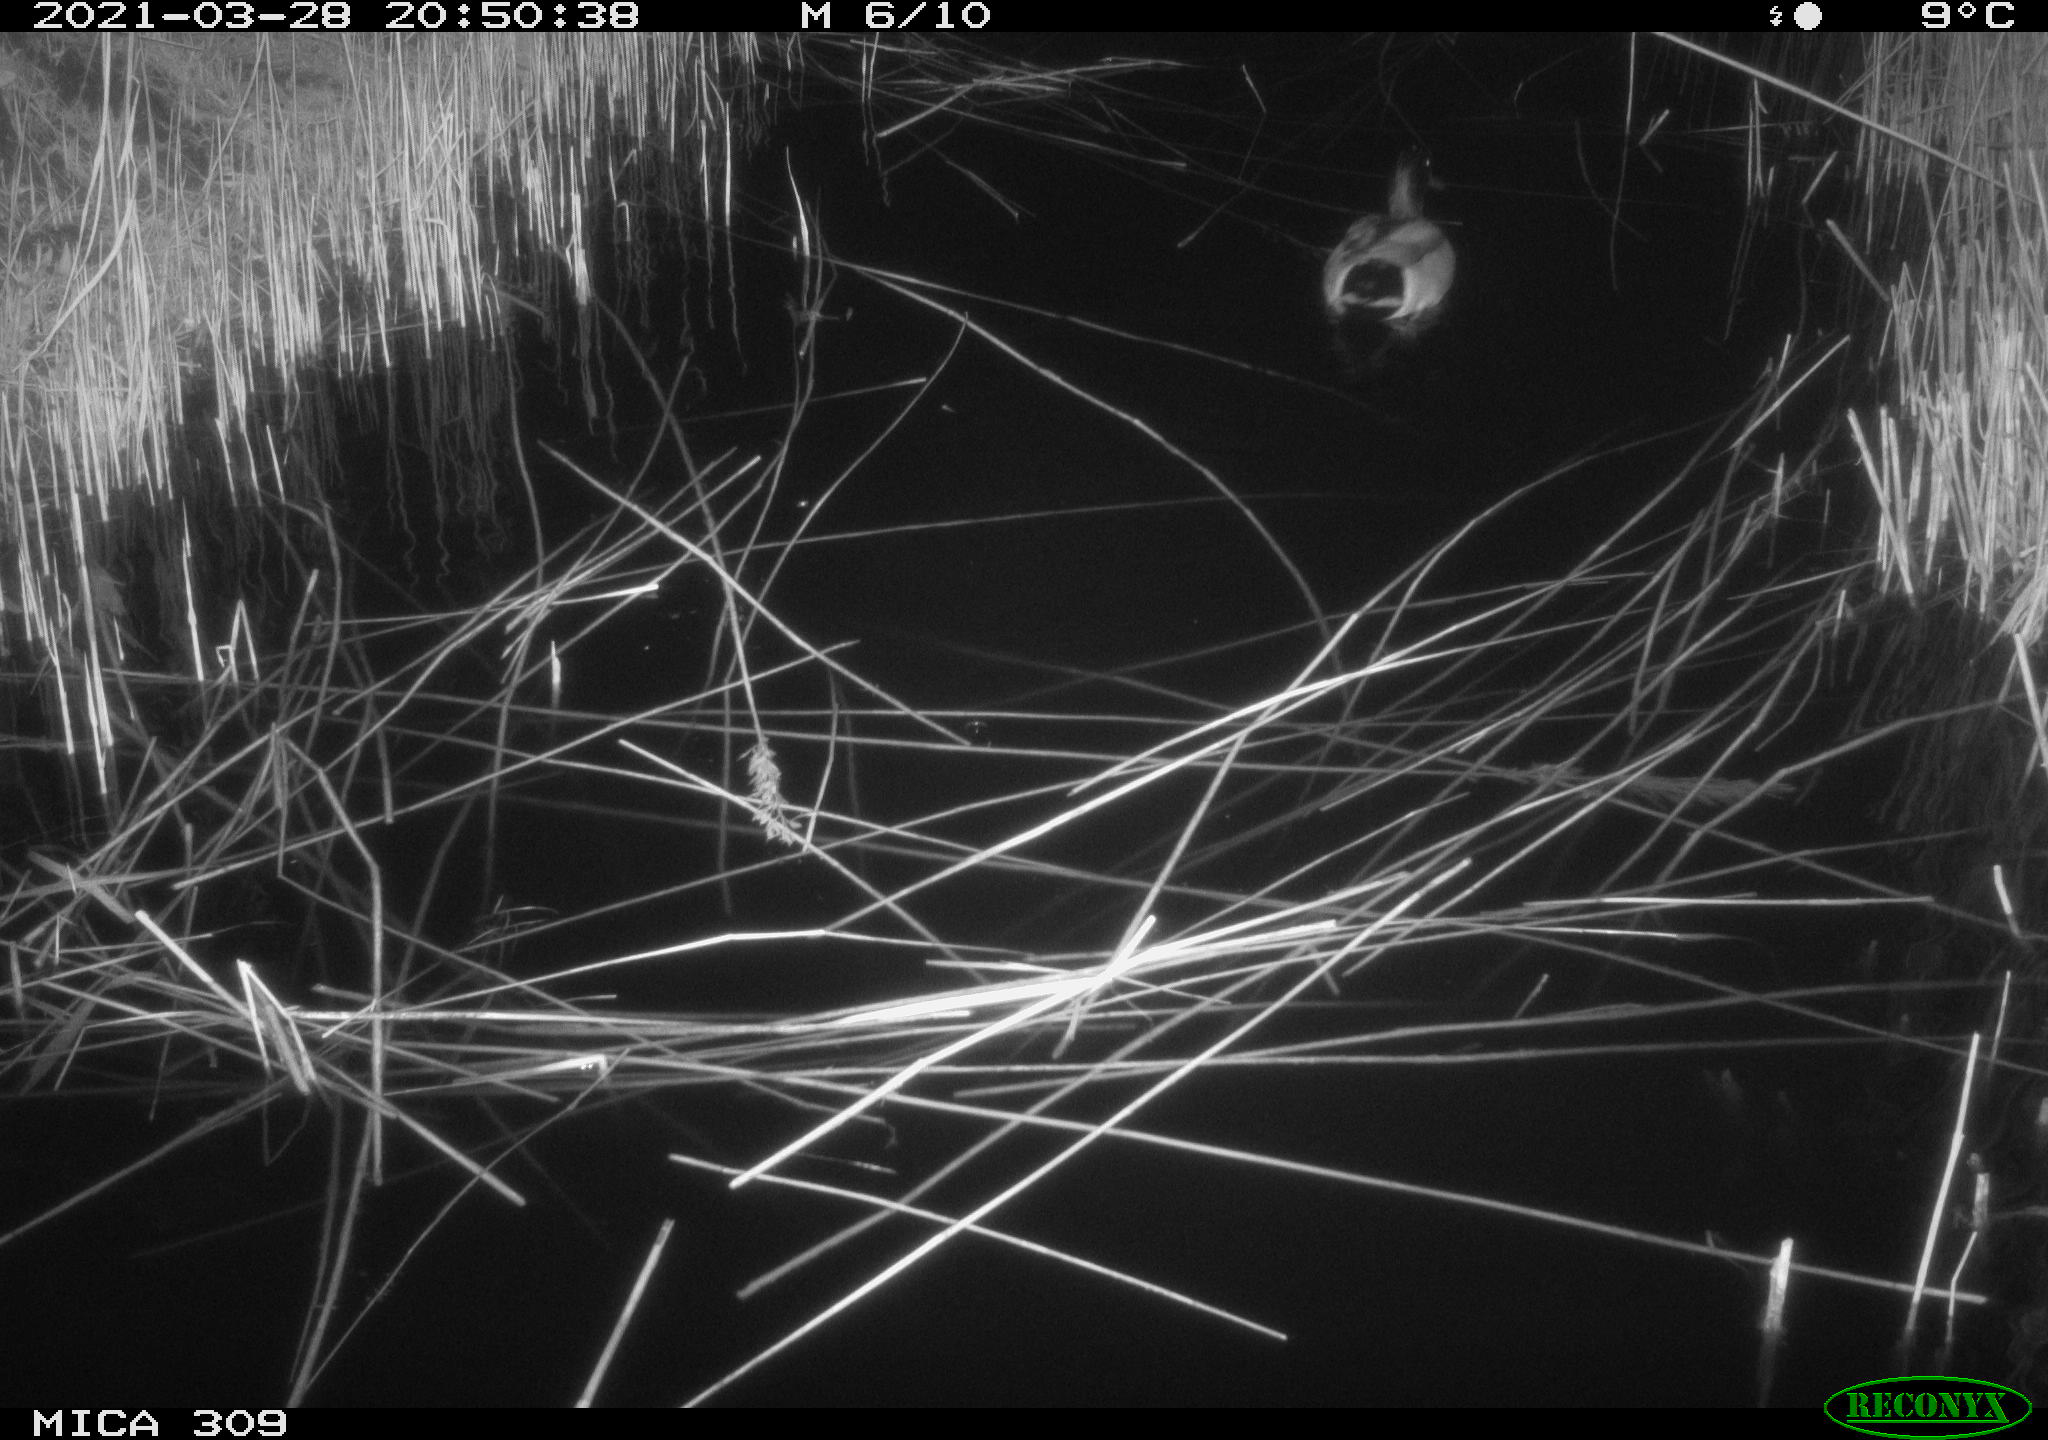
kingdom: Animalia
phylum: Chordata
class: Aves
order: Anseriformes
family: Anatidae
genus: Anas
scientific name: Anas platyrhynchos
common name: Mallard
